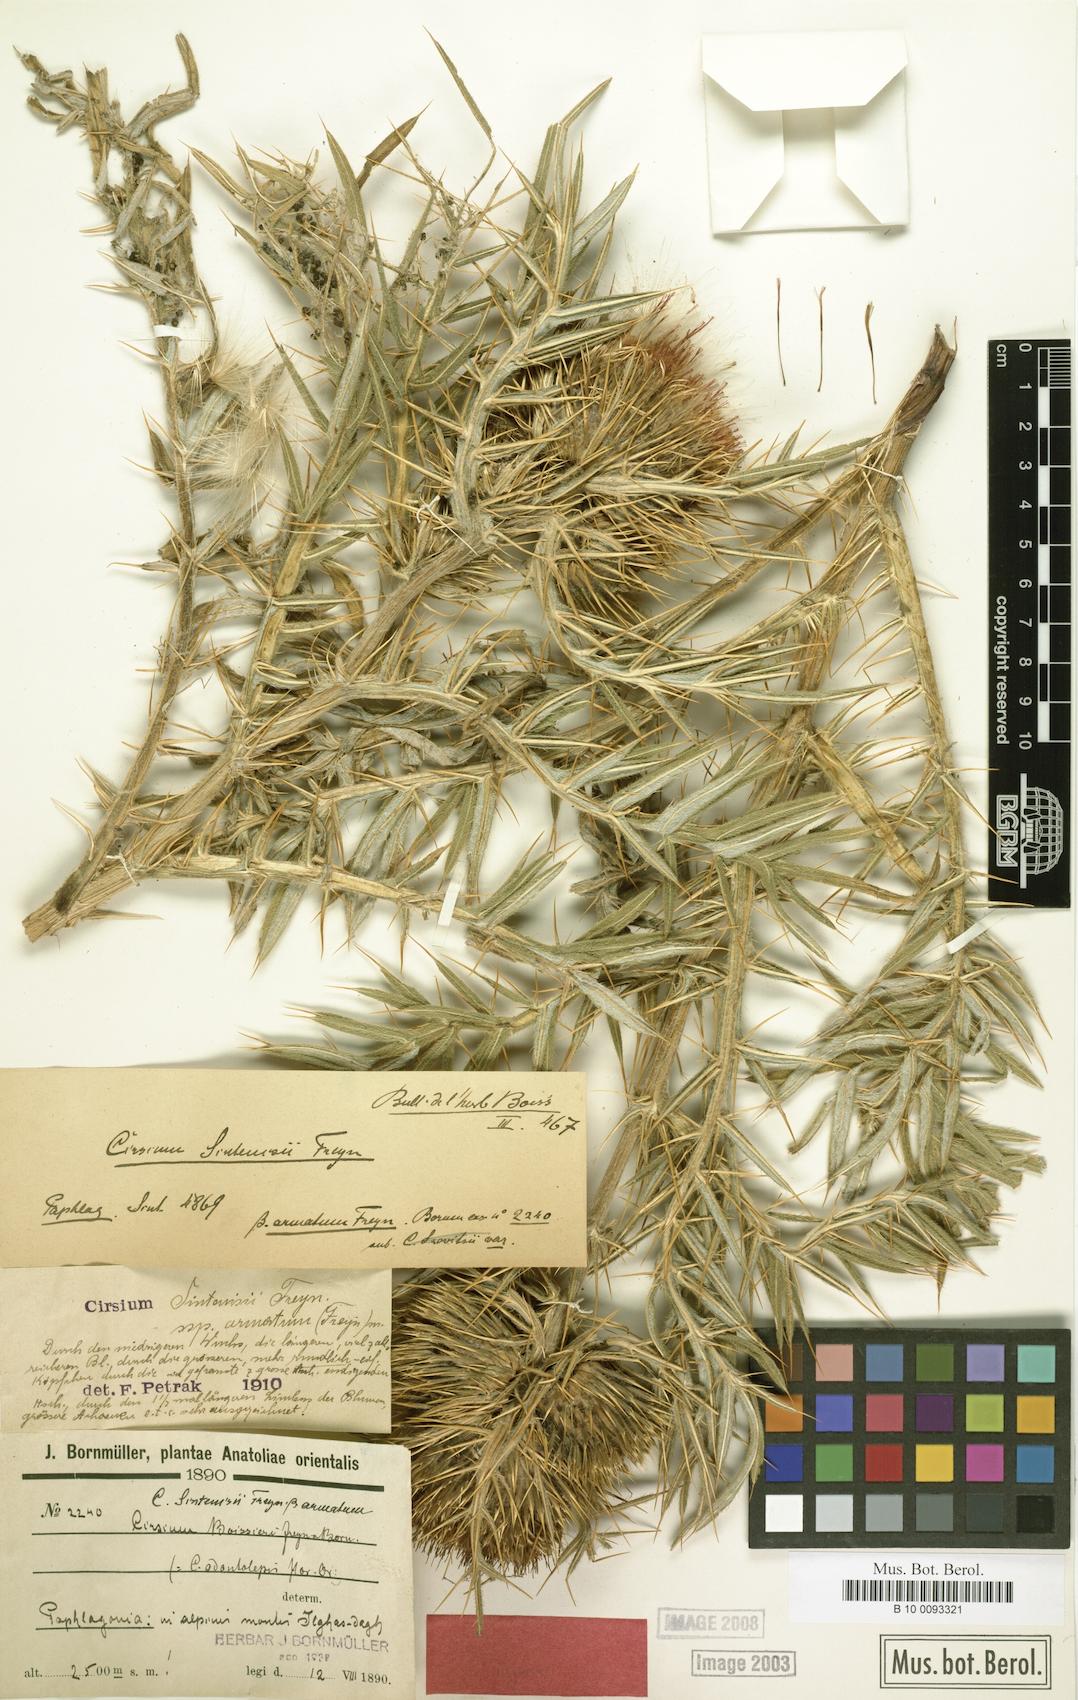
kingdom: Plantae
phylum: Tracheophyta
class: Magnoliopsida
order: Asterales
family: Asteraceae
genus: Lophiolepis
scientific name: Lophiolepis sintenisii
